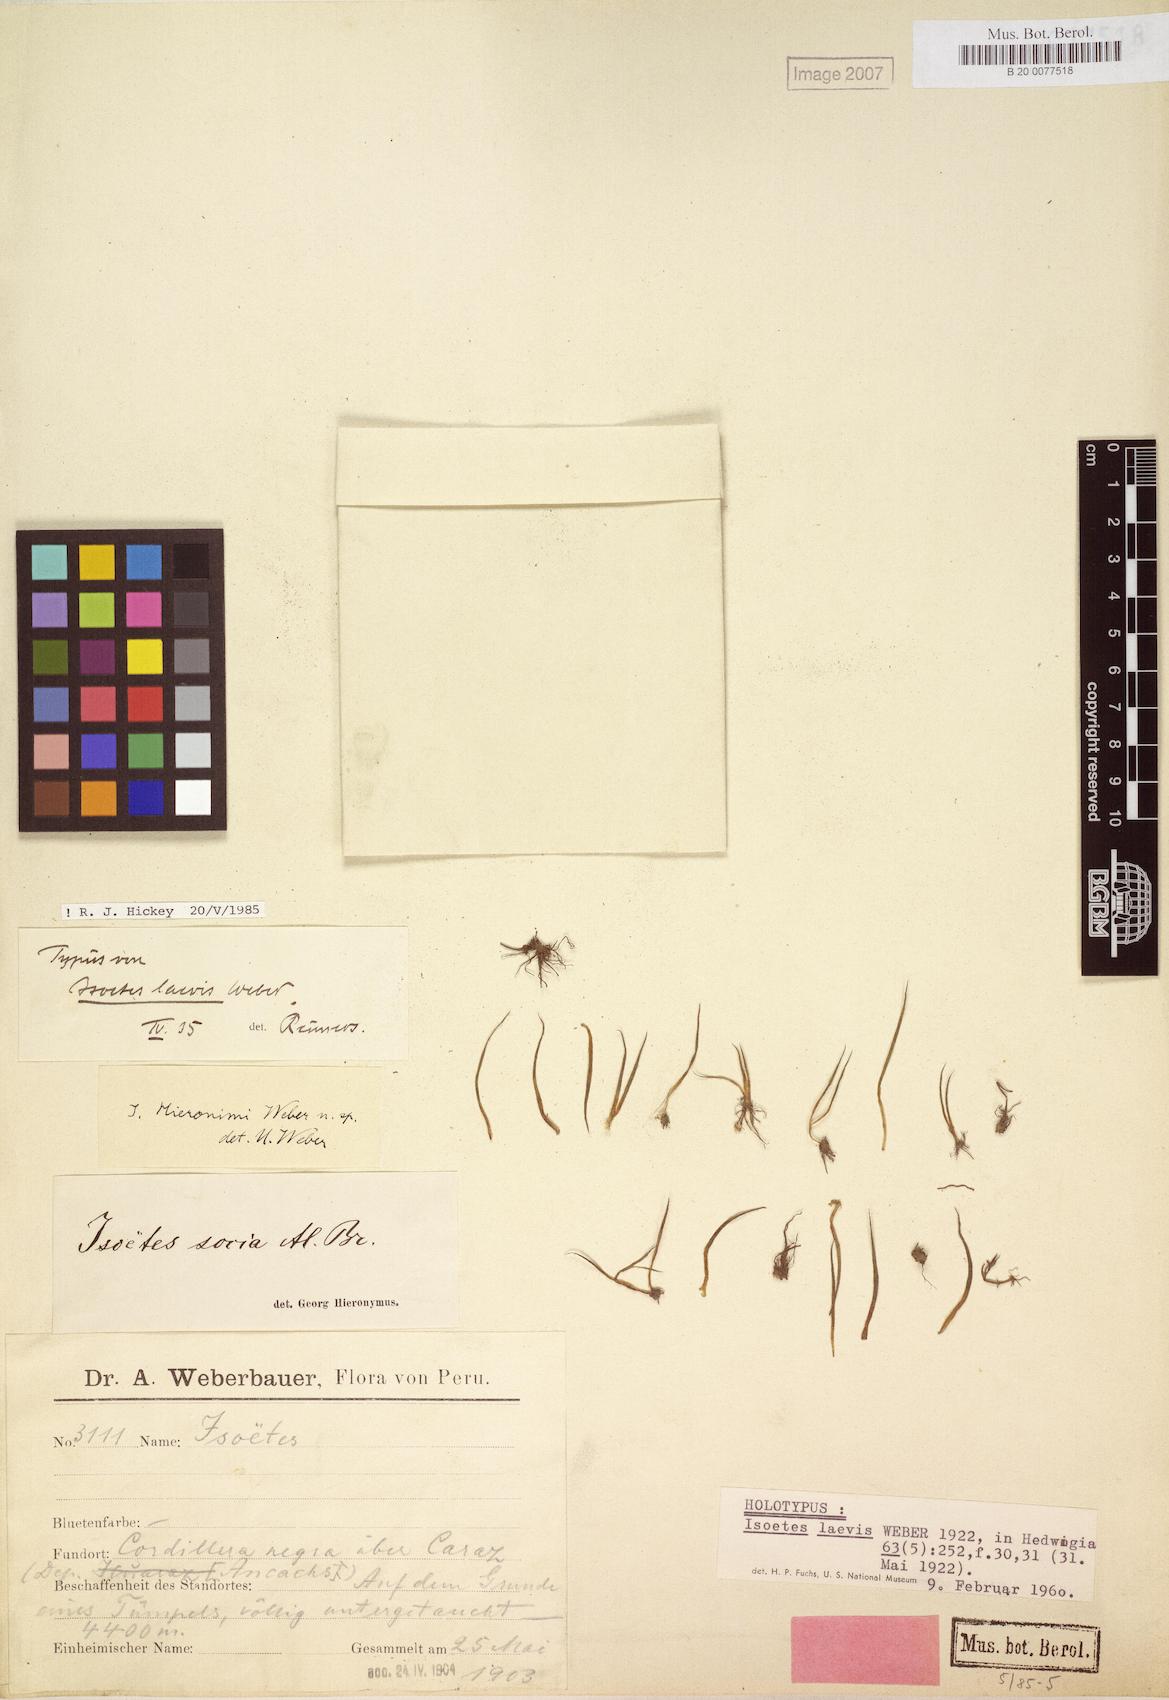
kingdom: Plantae
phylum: Tracheophyta
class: Lycopodiopsida
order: Isoetales
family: Isoetaceae
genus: Isoetes
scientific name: Isoetes lechleri
